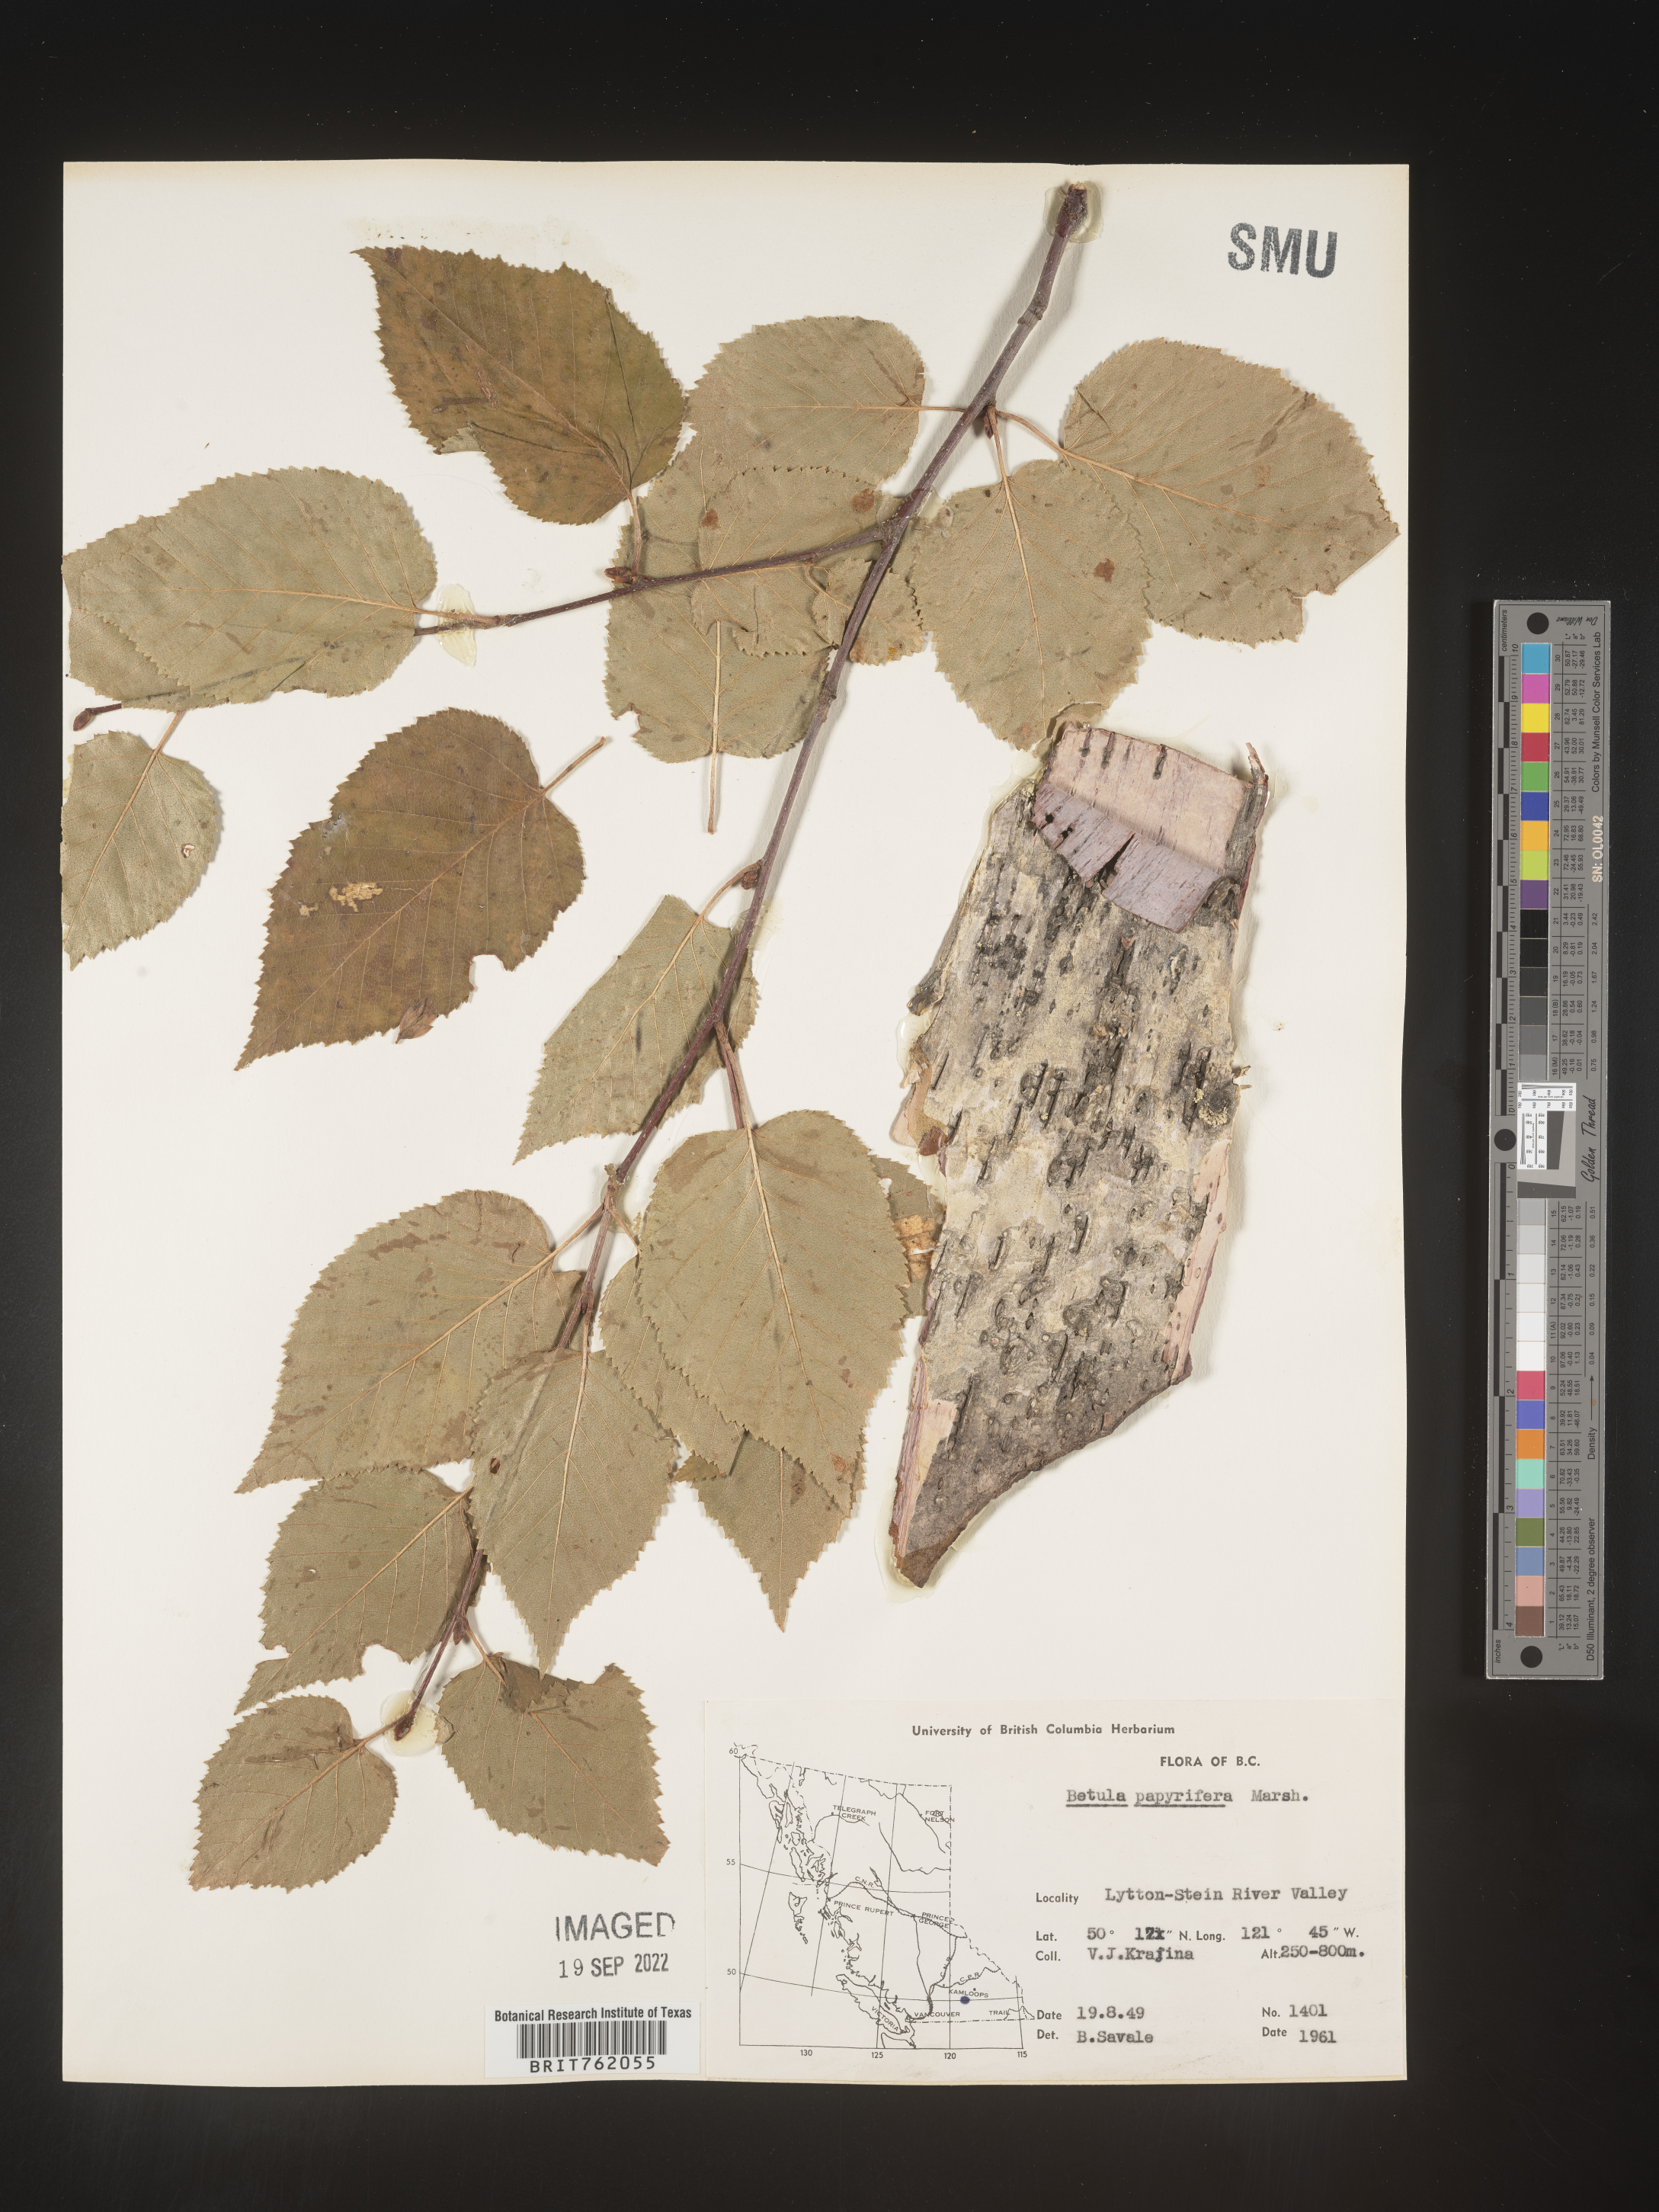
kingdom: Plantae
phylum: Tracheophyta
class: Magnoliopsida
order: Fagales
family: Betulaceae
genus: Betula
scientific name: Betula papyrifera
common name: Paper birch
